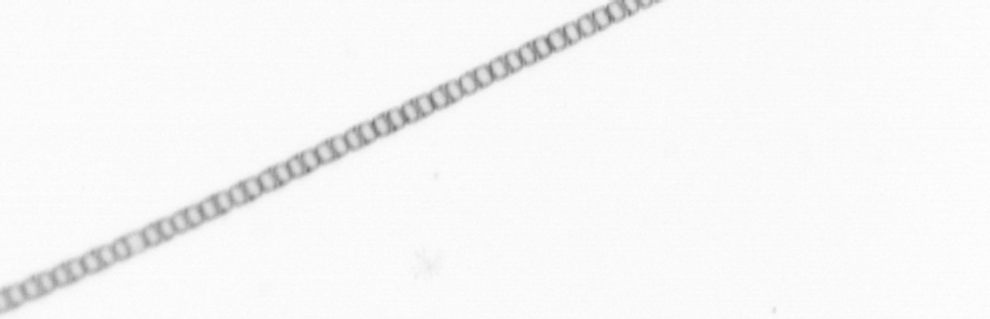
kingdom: Chromista
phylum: Ochrophyta
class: Bacillariophyceae
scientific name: Bacillariophyceae
